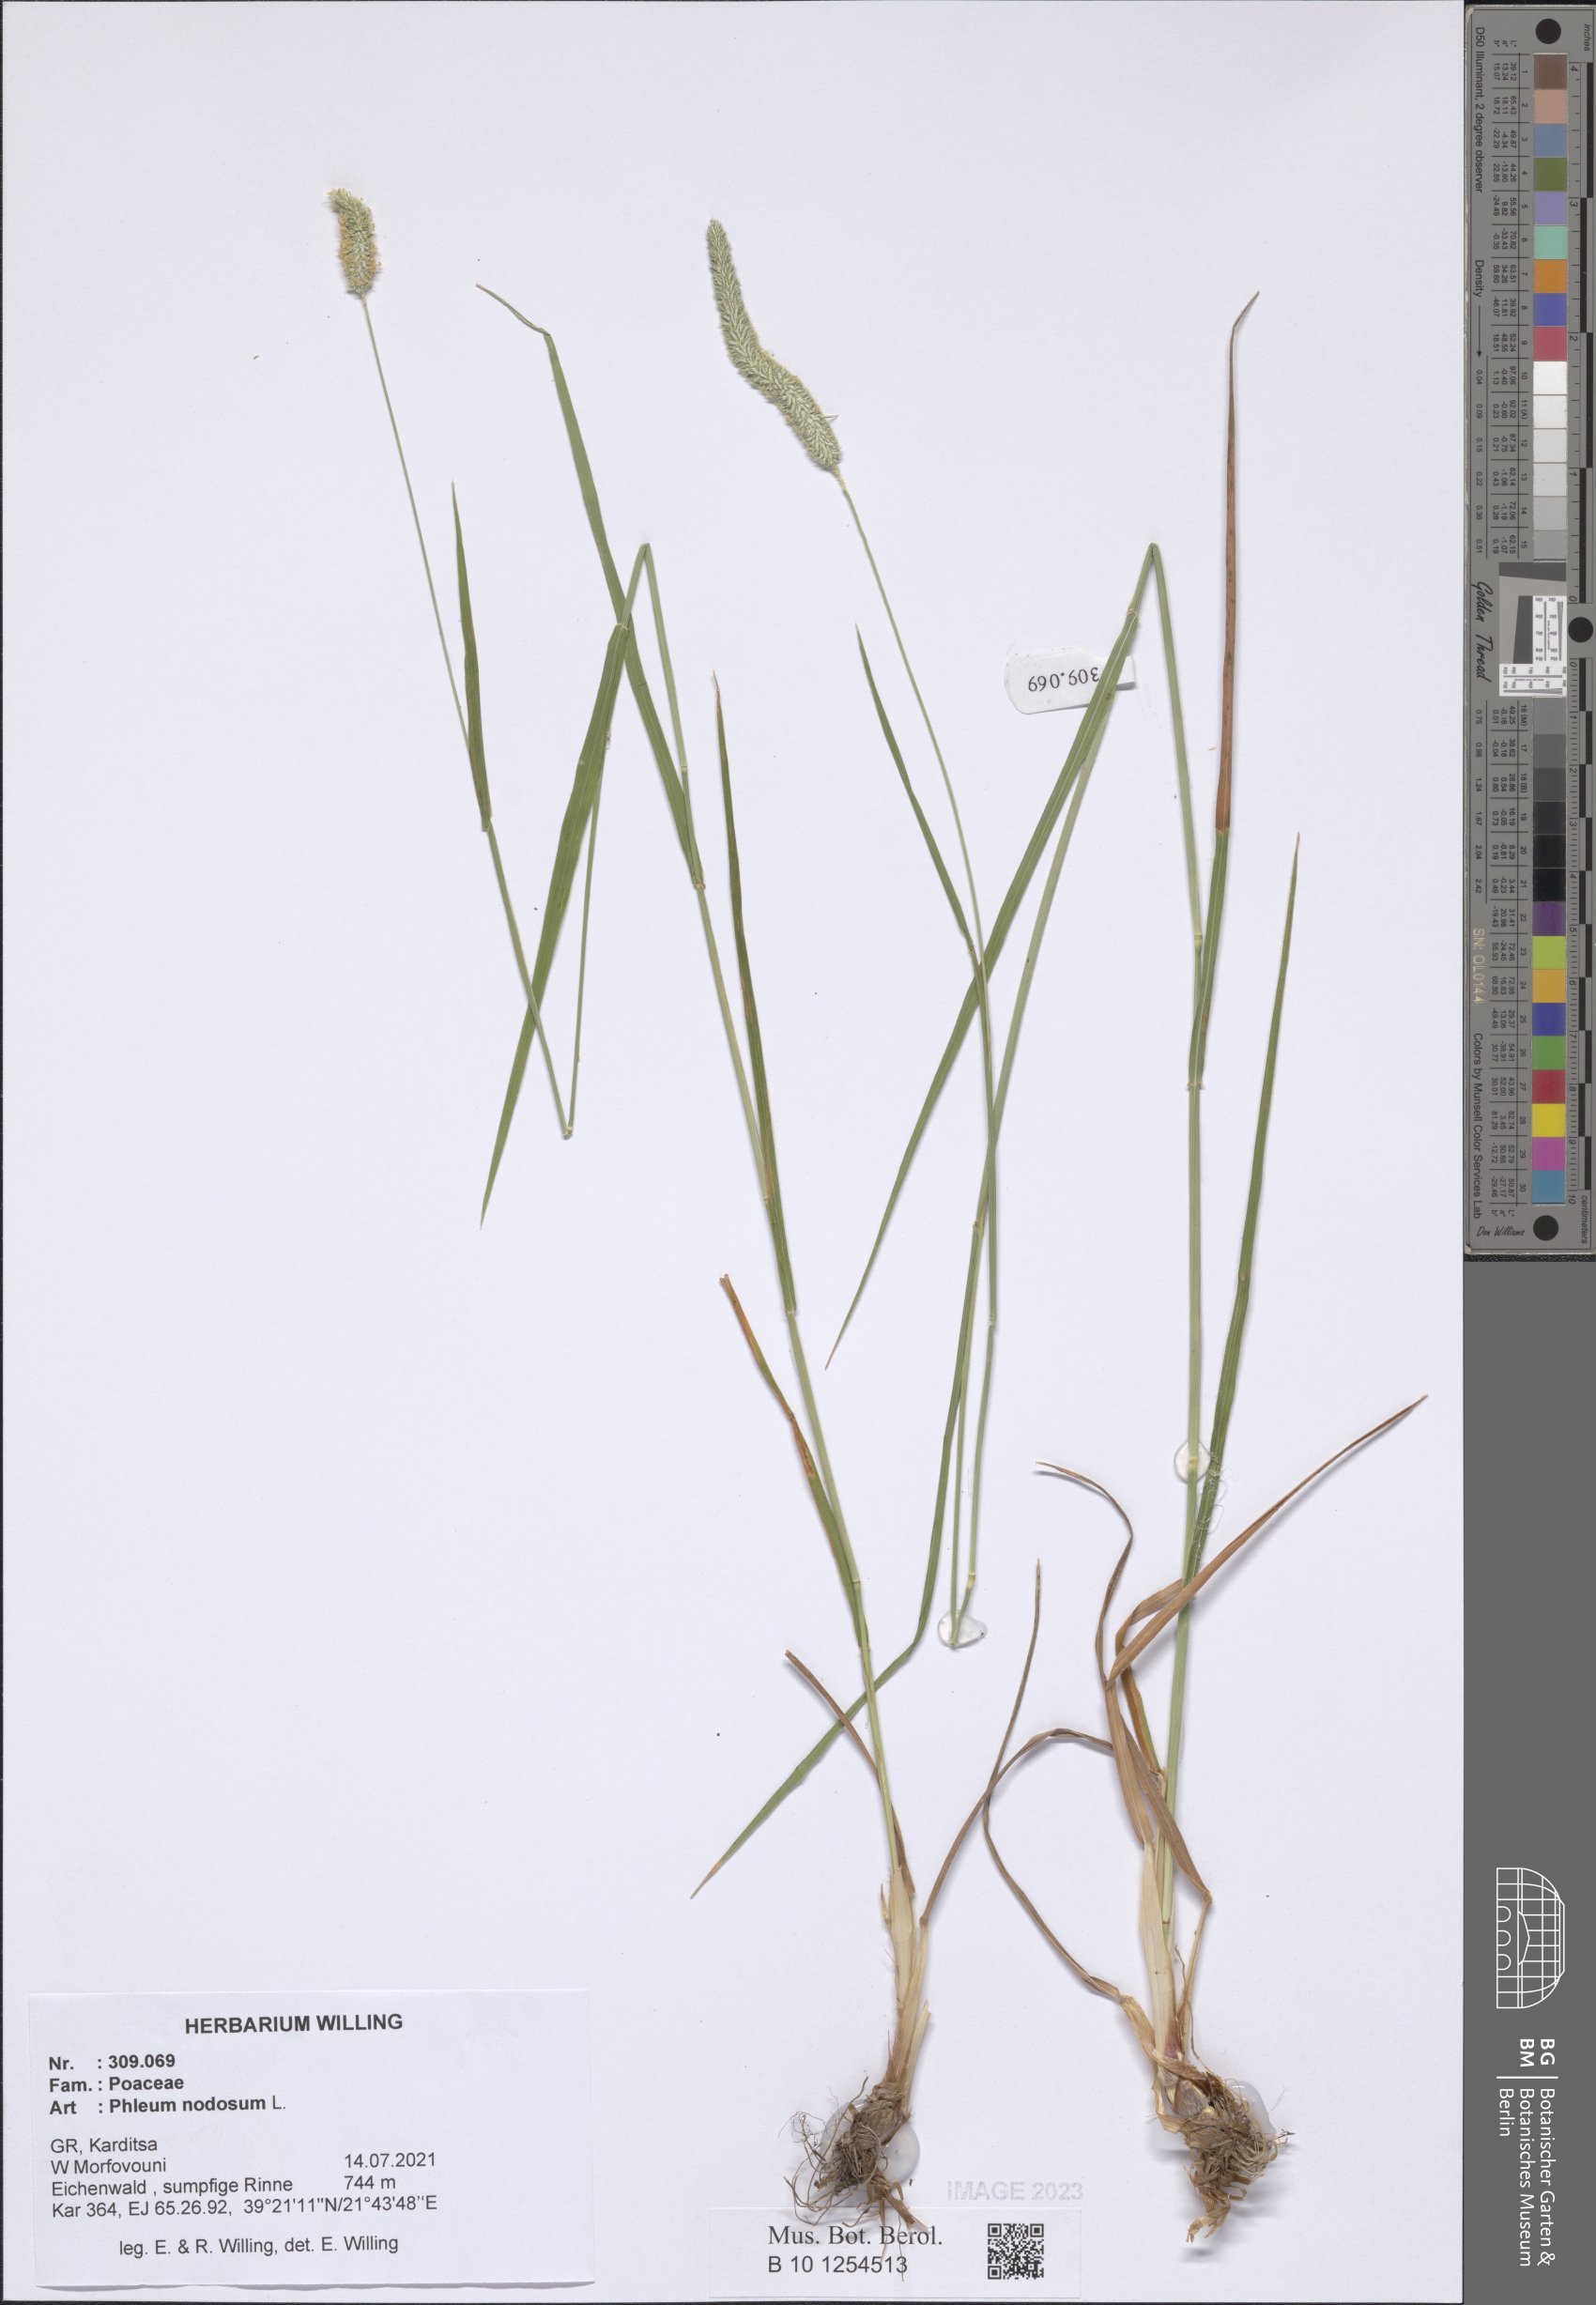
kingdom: Plantae
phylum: Tracheophyta
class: Liliopsida
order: Poales
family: Poaceae
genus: Phleum
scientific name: Phleum pratense
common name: Timothy grass
